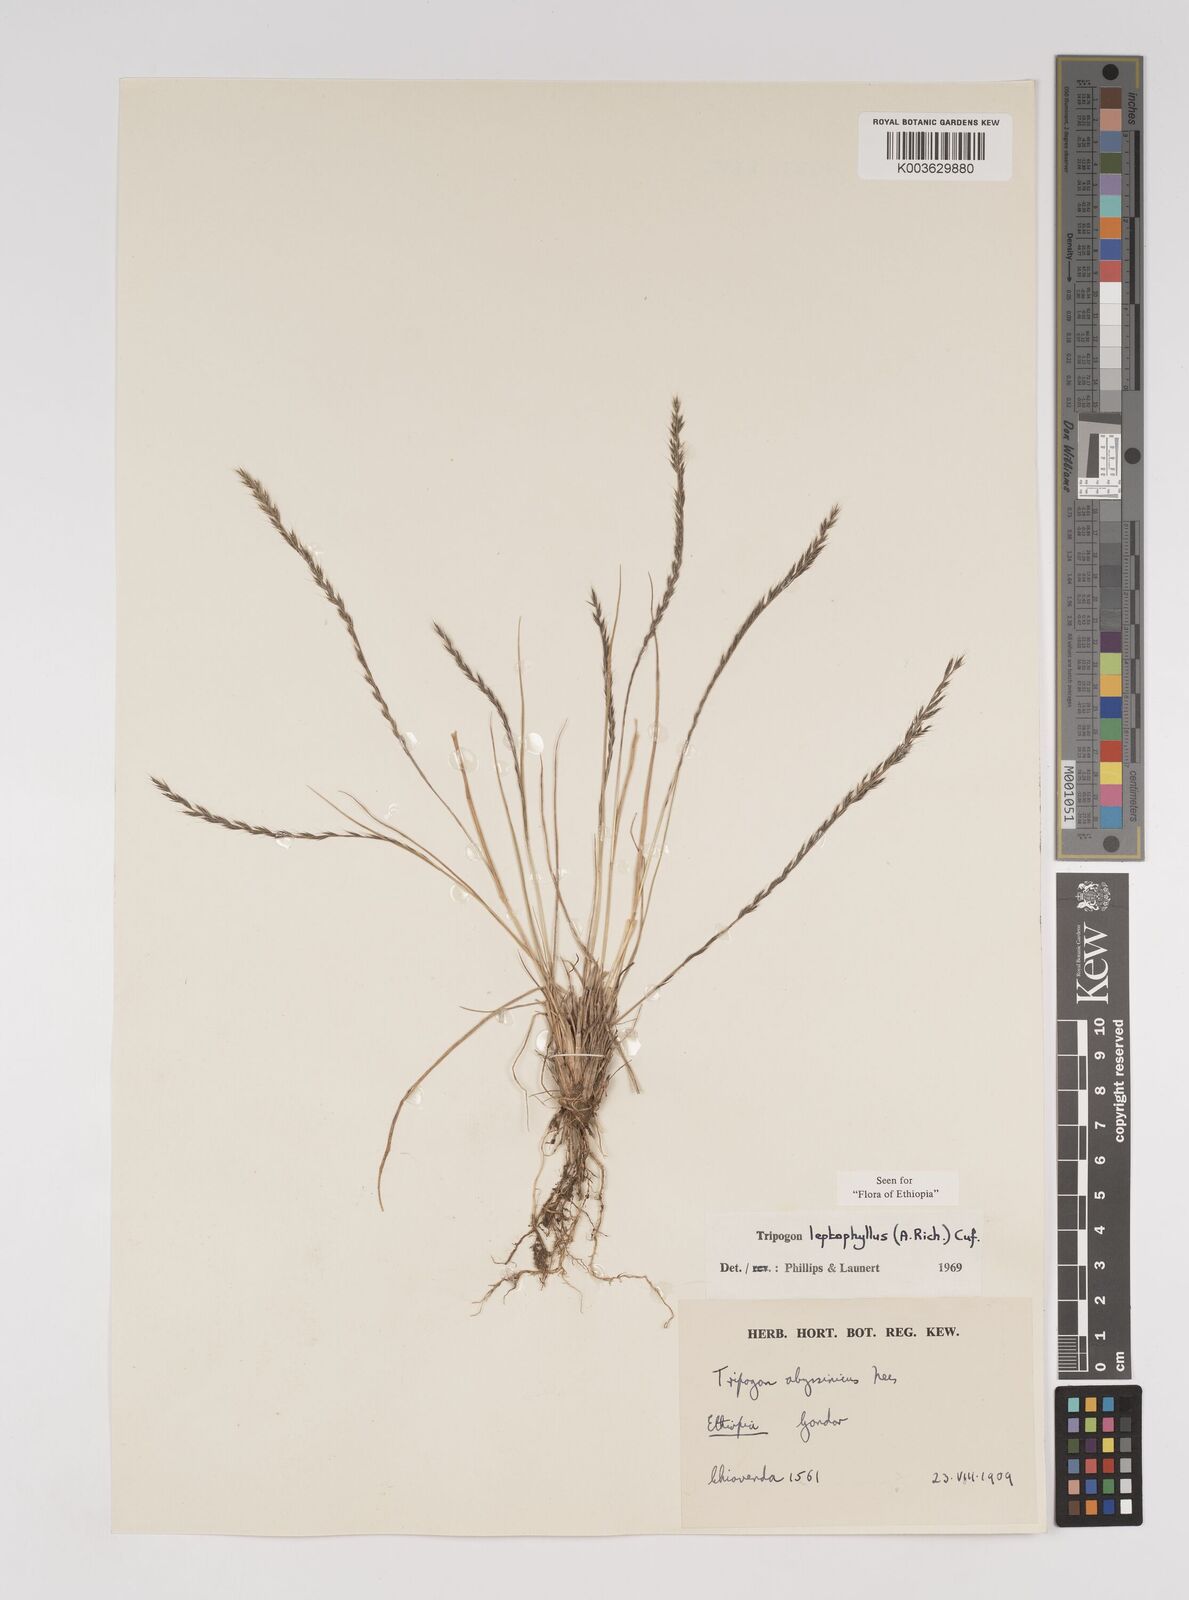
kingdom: Plantae
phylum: Tracheophyta
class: Liliopsida
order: Poales
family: Poaceae
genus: Tripogon
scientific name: Tripogon leptophyllus
